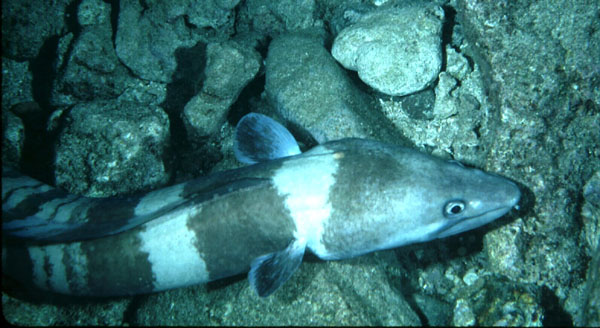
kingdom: Animalia
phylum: Chordata
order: Anguilliformes
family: Congridae
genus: Conger
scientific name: Conger cinereus
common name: Moustache conger
